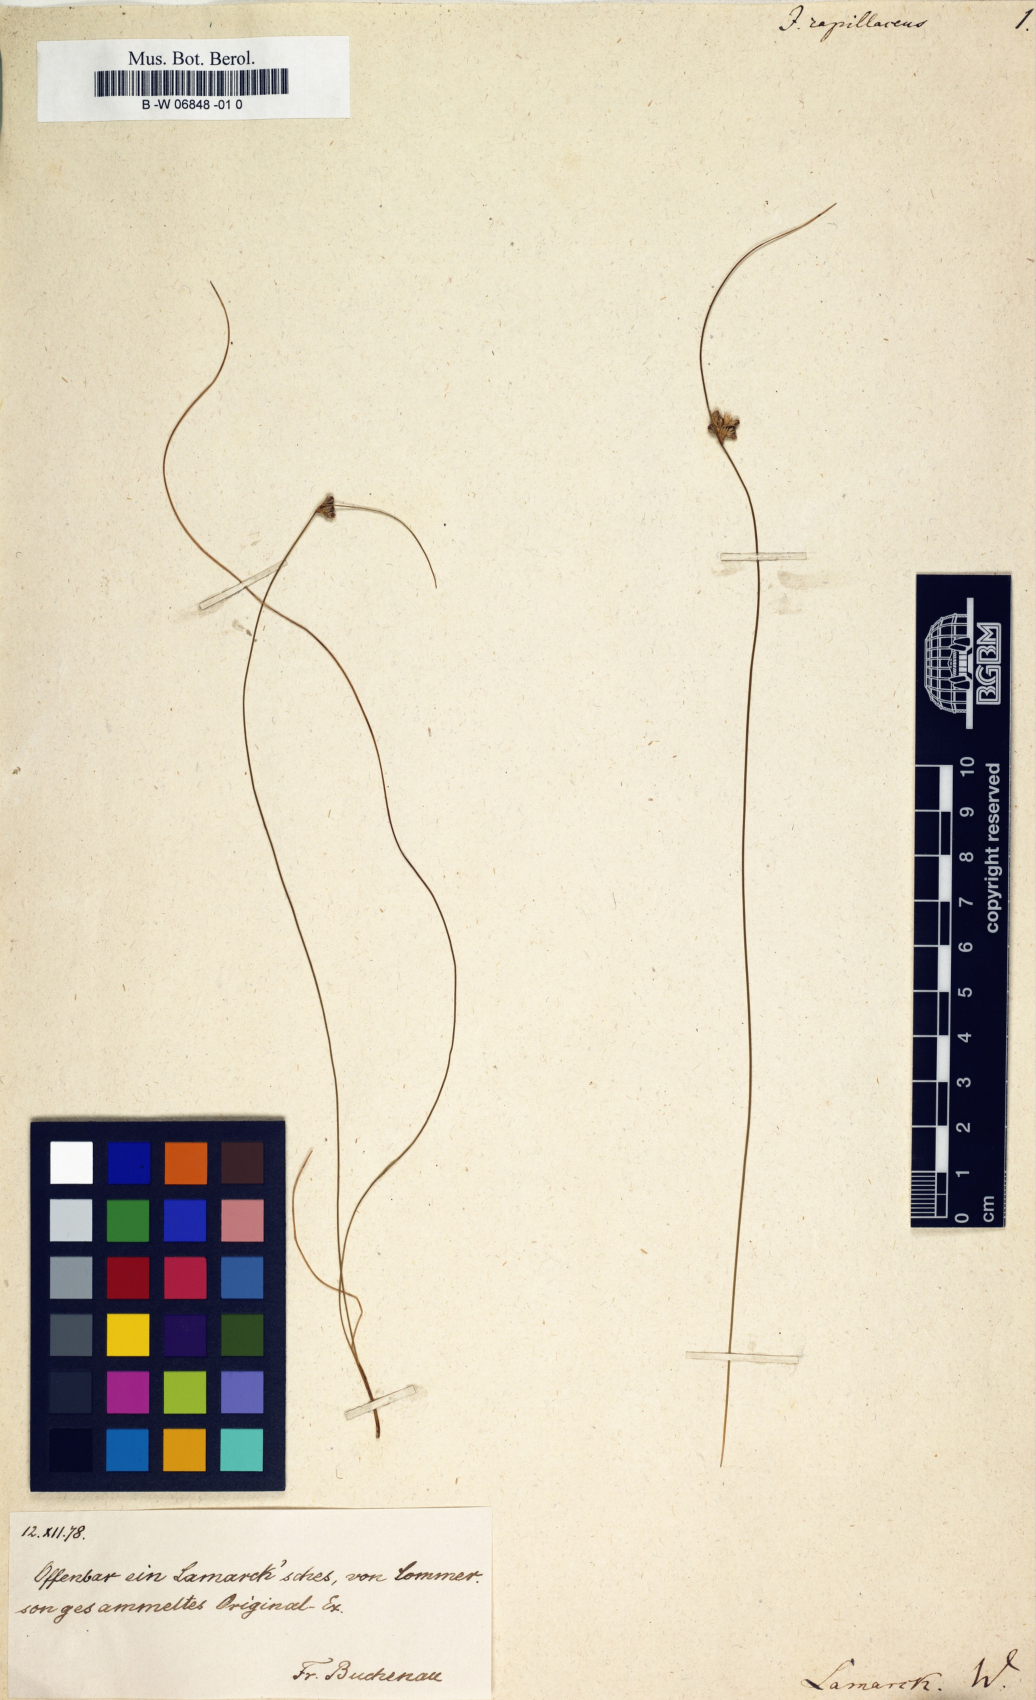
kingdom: Plantae
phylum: Tracheophyta
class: Liliopsida
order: Poales
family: Juncaceae
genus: Juncus
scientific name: Juncus capillaceus
